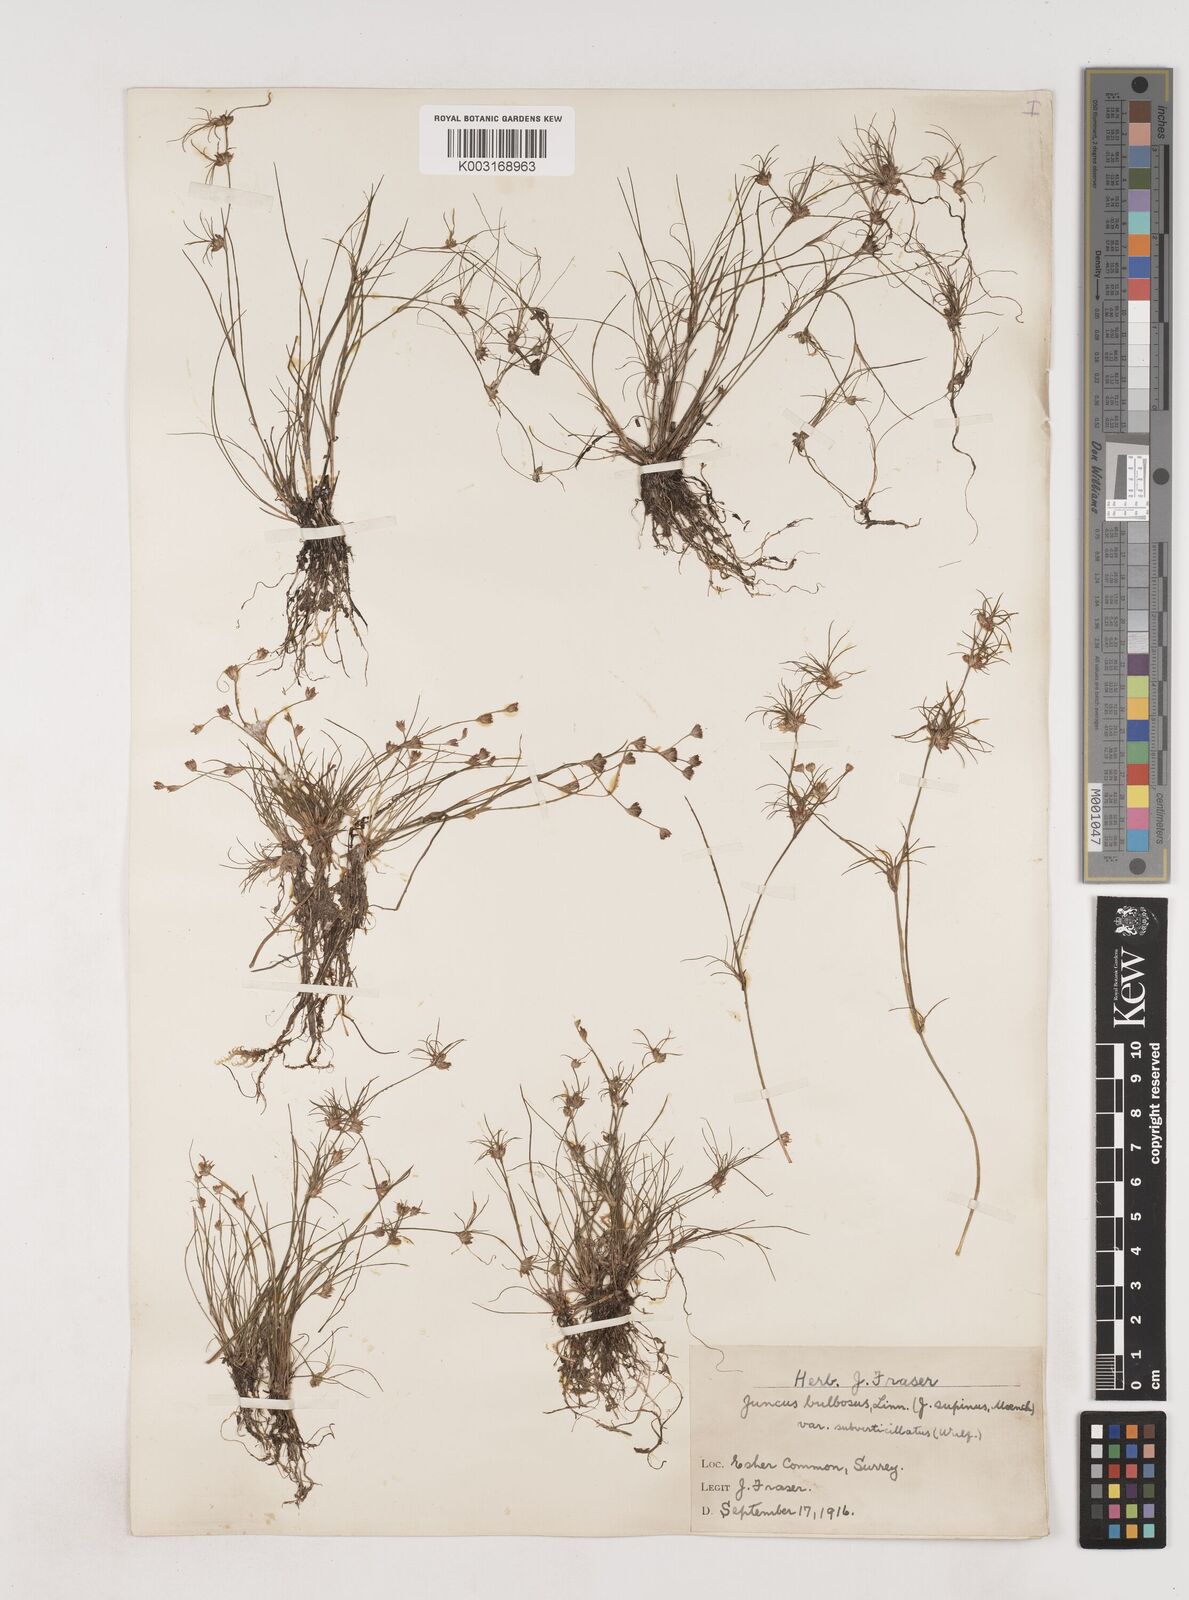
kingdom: Plantae
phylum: Tracheophyta
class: Liliopsida
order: Poales
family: Juncaceae
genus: Juncus
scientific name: Juncus bulbosus
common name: Bulbous rush
